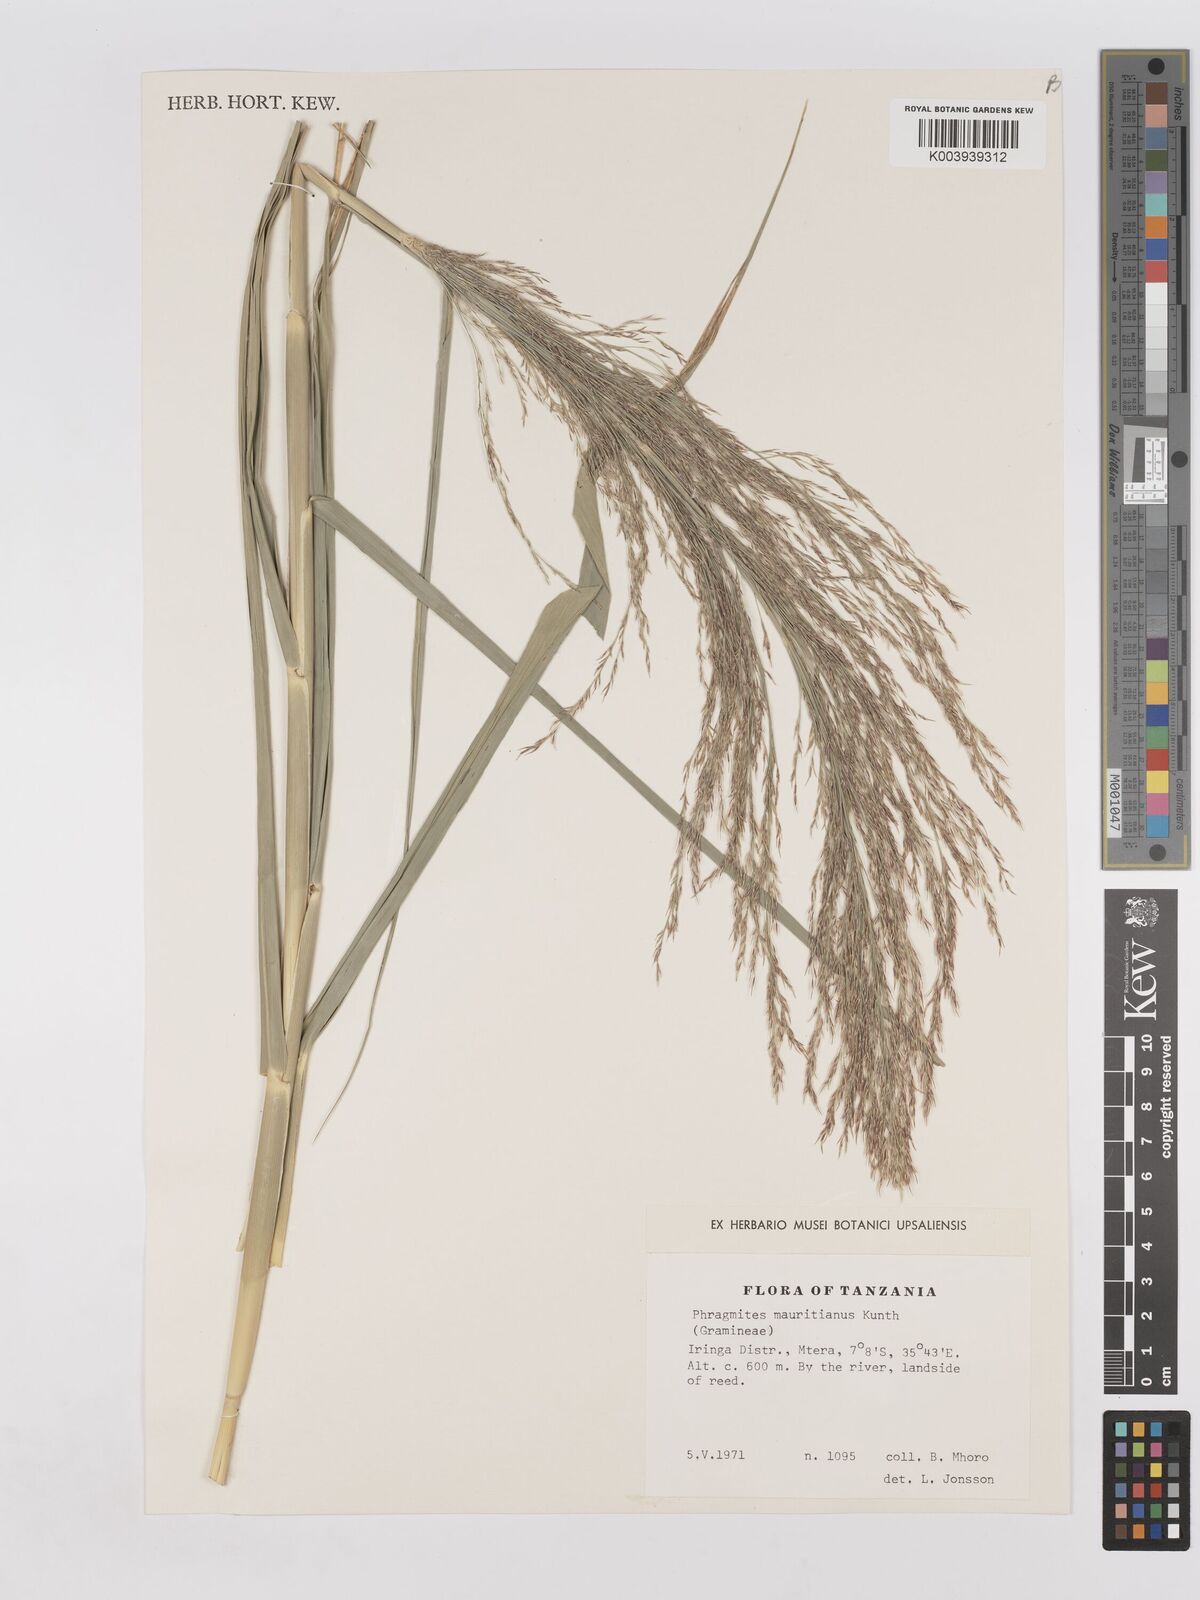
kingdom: Plantae
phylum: Tracheophyta
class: Liliopsida
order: Poales
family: Poaceae
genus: Phragmites
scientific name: Phragmites mauritianus
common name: Reed grass
